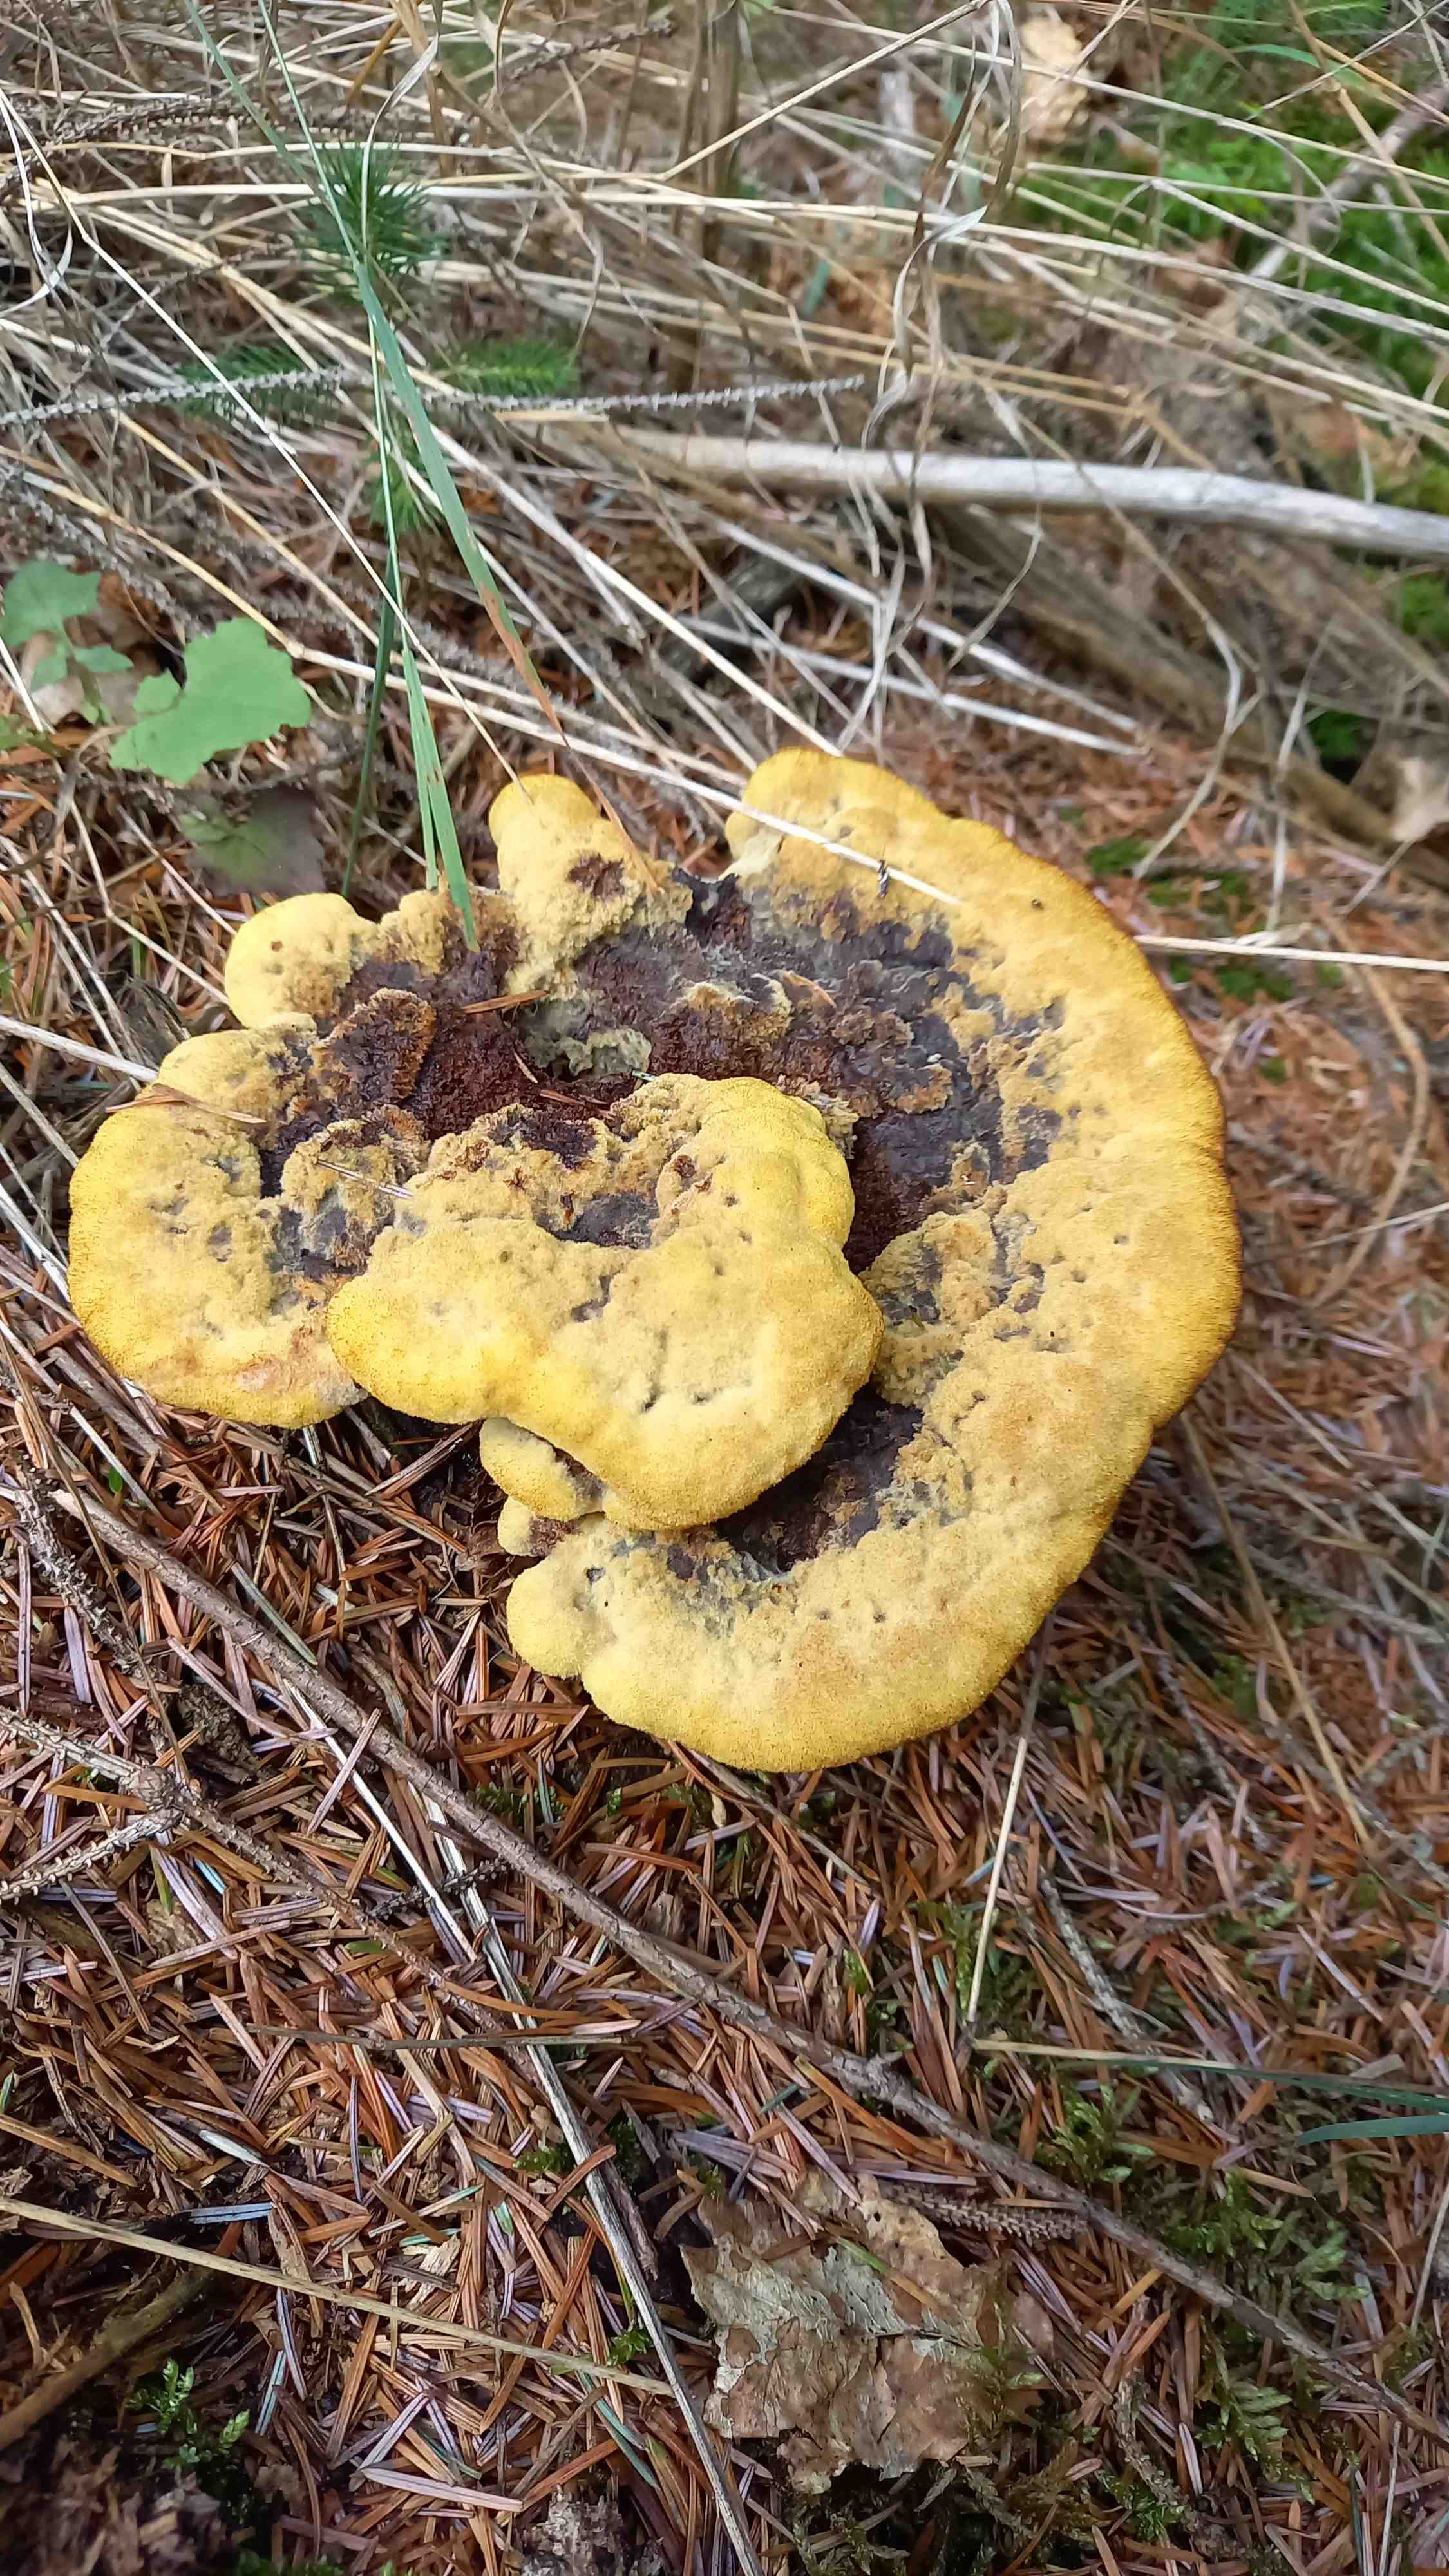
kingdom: Fungi
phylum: Basidiomycota
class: Agaricomycetes
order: Polyporales
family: Laetiporaceae
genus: Phaeolus
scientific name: Phaeolus schweinitzii
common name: brunporesvamp
